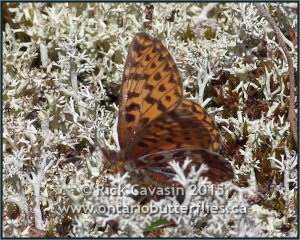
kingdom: Animalia
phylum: Arthropoda
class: Insecta
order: Lepidoptera
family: Nymphalidae
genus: Boloria
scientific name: Boloria freija
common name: Freija Fritillary
